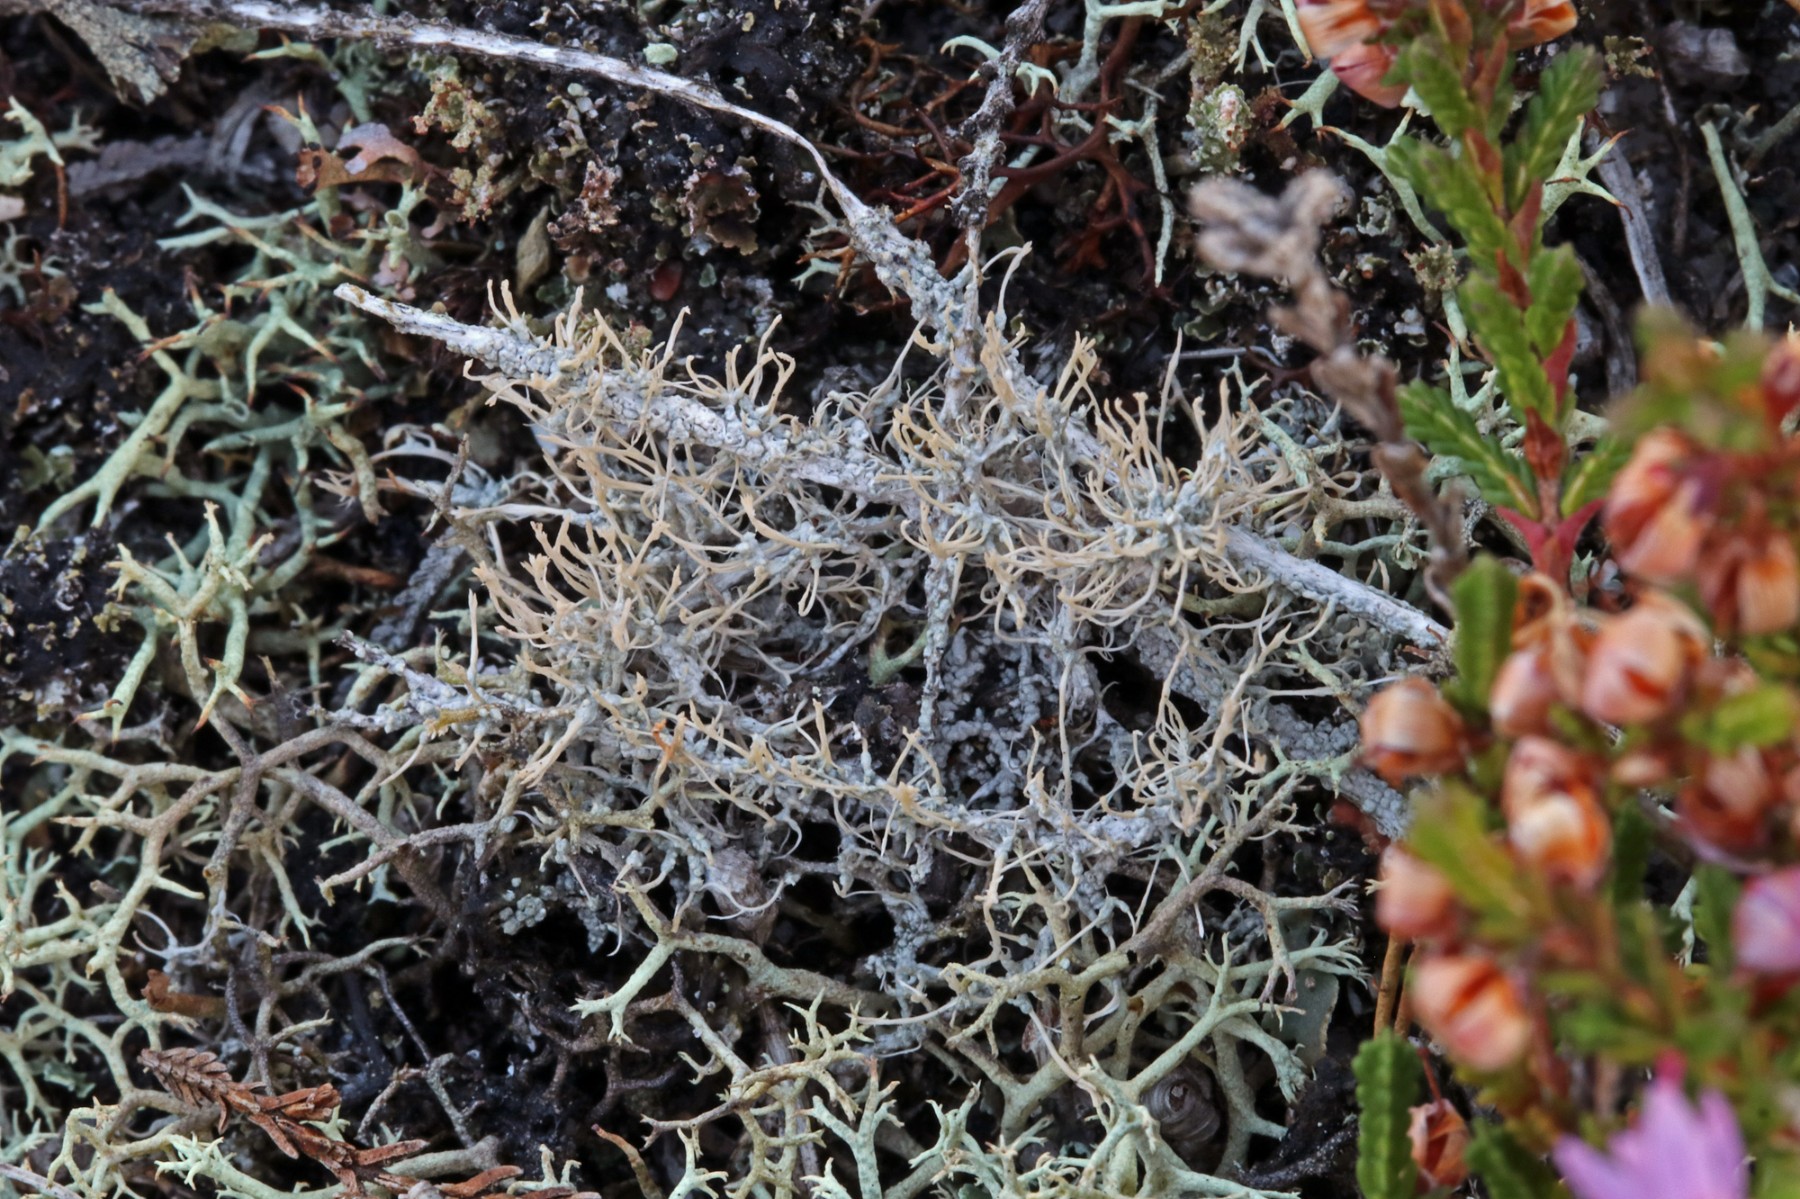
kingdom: Fungi
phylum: Ascomycota
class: Lecanoromycetes
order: Pertusariales
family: Ochrolechiaceae
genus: Ochrolechia
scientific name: Ochrolechia frigida
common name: fjeld-blegskivelav
